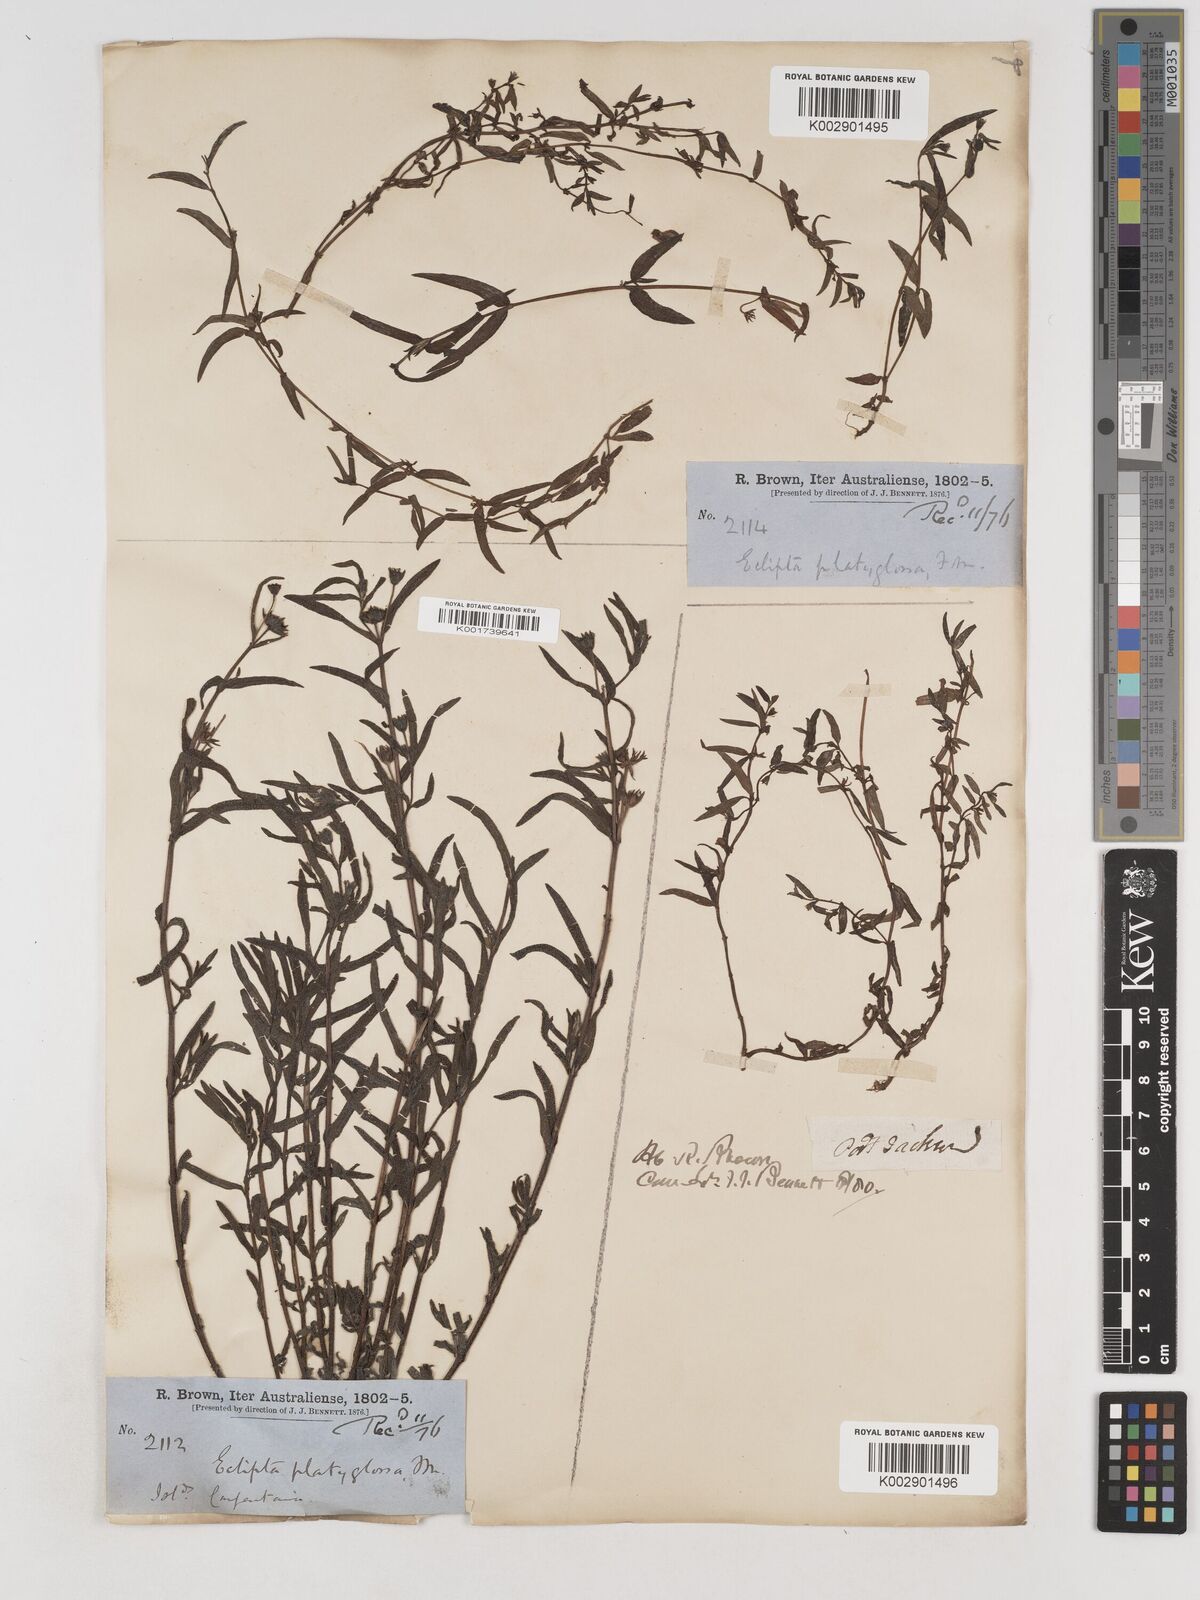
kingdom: Plantae
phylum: Tracheophyta
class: Magnoliopsida
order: Asterales
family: Asteraceae
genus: Eclipta
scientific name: Eclipta platyglossa
